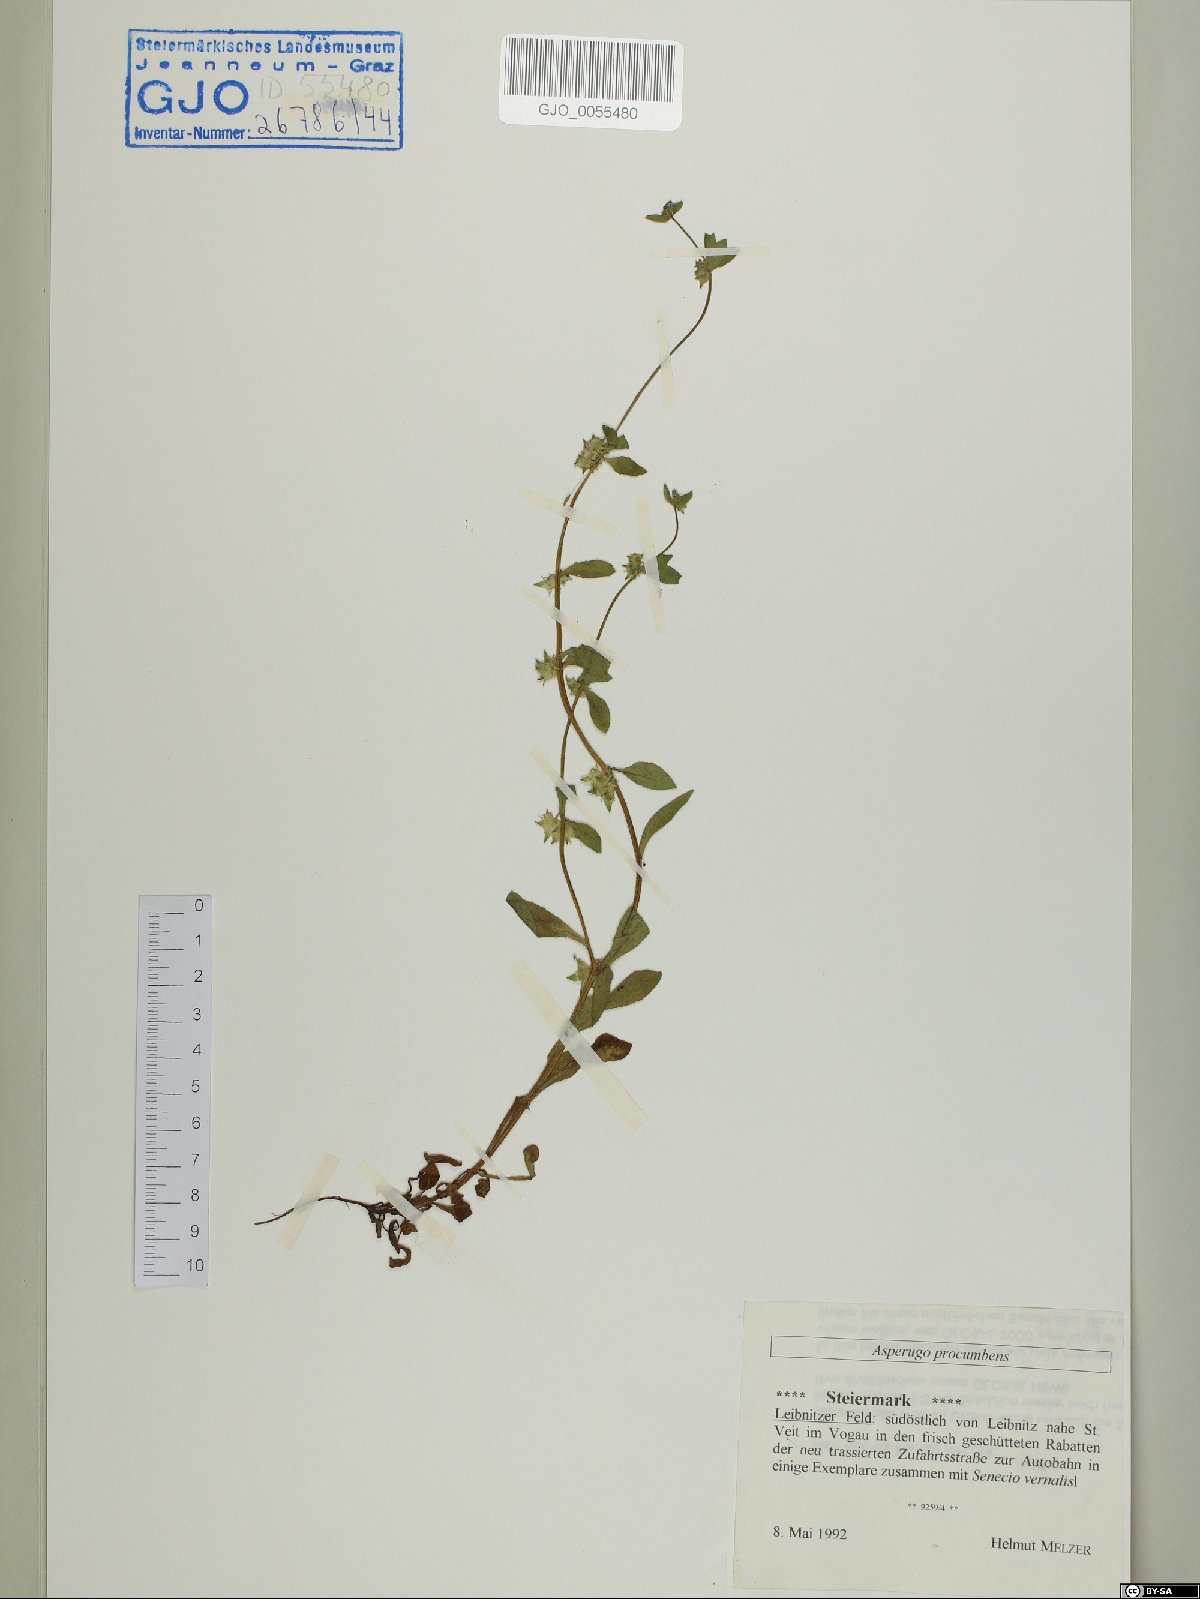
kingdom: Plantae
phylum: Tracheophyta
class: Magnoliopsida
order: Boraginales
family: Boraginaceae
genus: Asperugo
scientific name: Asperugo procumbens
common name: Madwort
